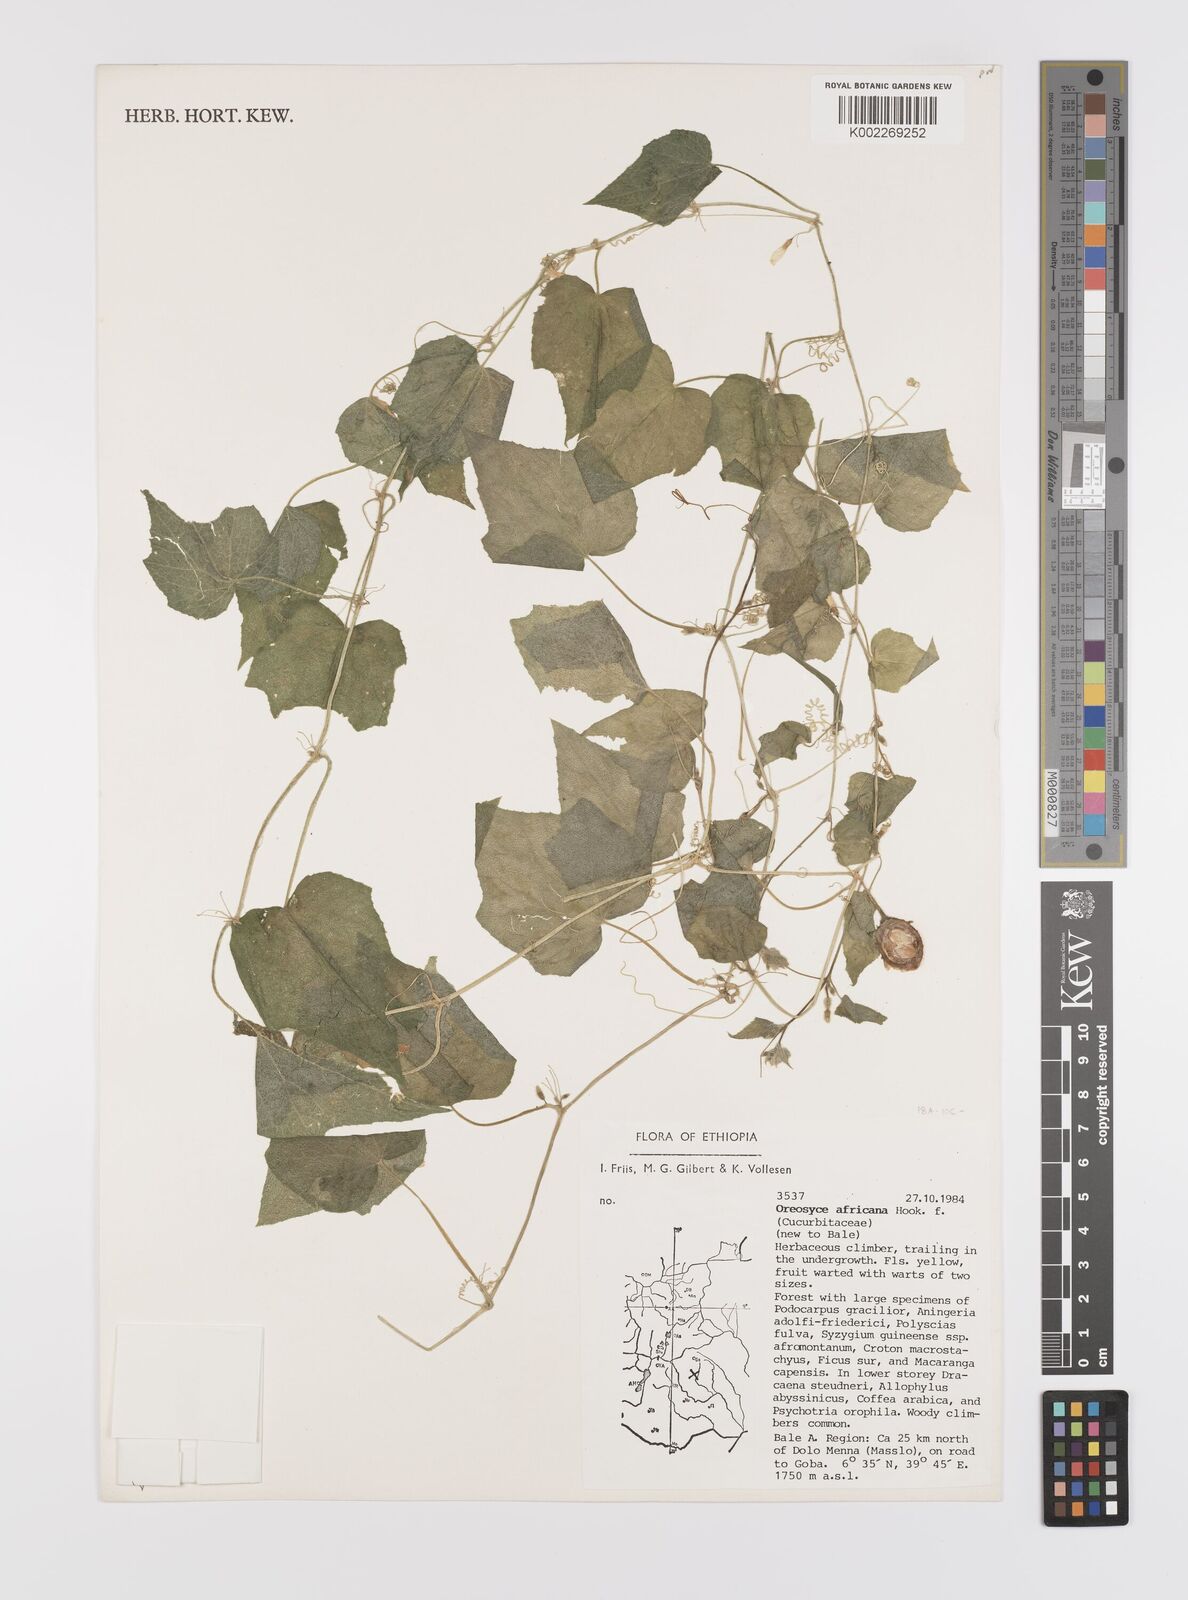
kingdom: Plantae
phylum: Tracheophyta
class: Magnoliopsida
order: Cucurbitales
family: Cucurbitaceae
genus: Cucumis
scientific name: Cucumis oreosyce
